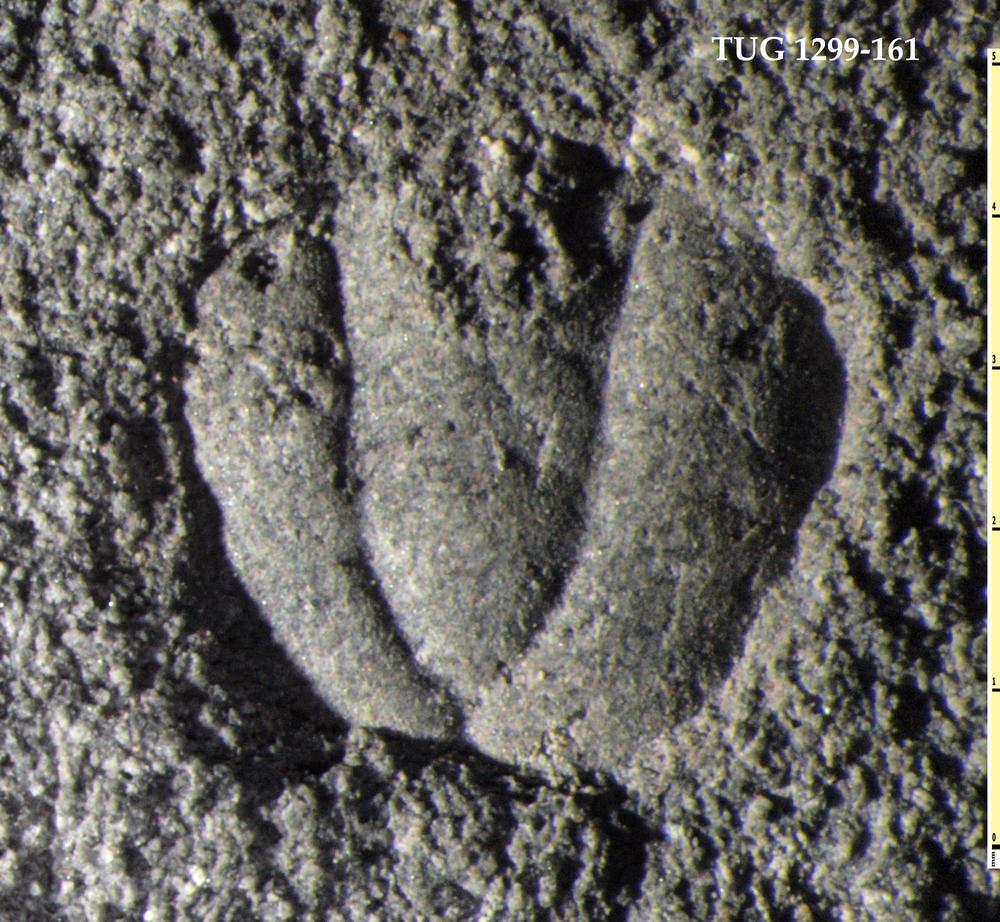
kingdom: Animalia
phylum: Arthropoda
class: Trilobita
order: Agnostida
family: Agnostidae
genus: Agnostus
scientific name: Agnostus Entomostracites pisiformis
